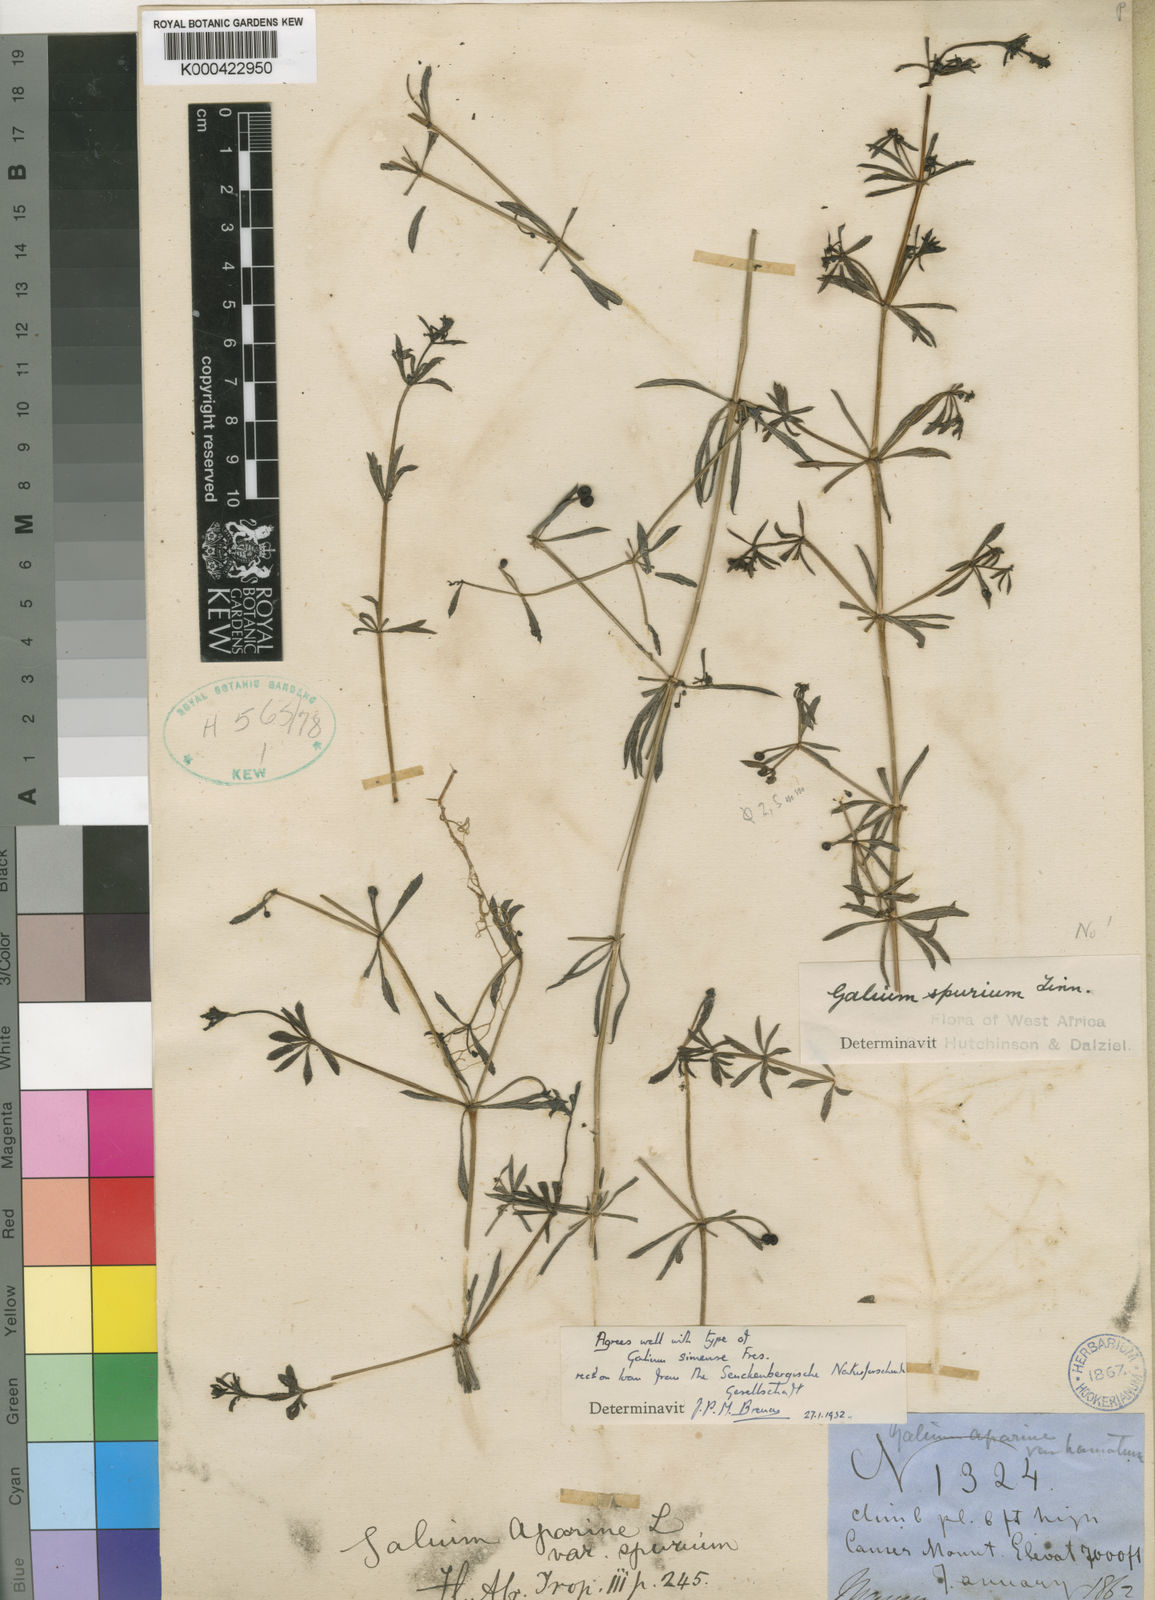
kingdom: Plantae
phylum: Tracheophyta
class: Magnoliopsida
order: Gentianales
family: Rubiaceae
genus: Galium
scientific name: Galium simense
